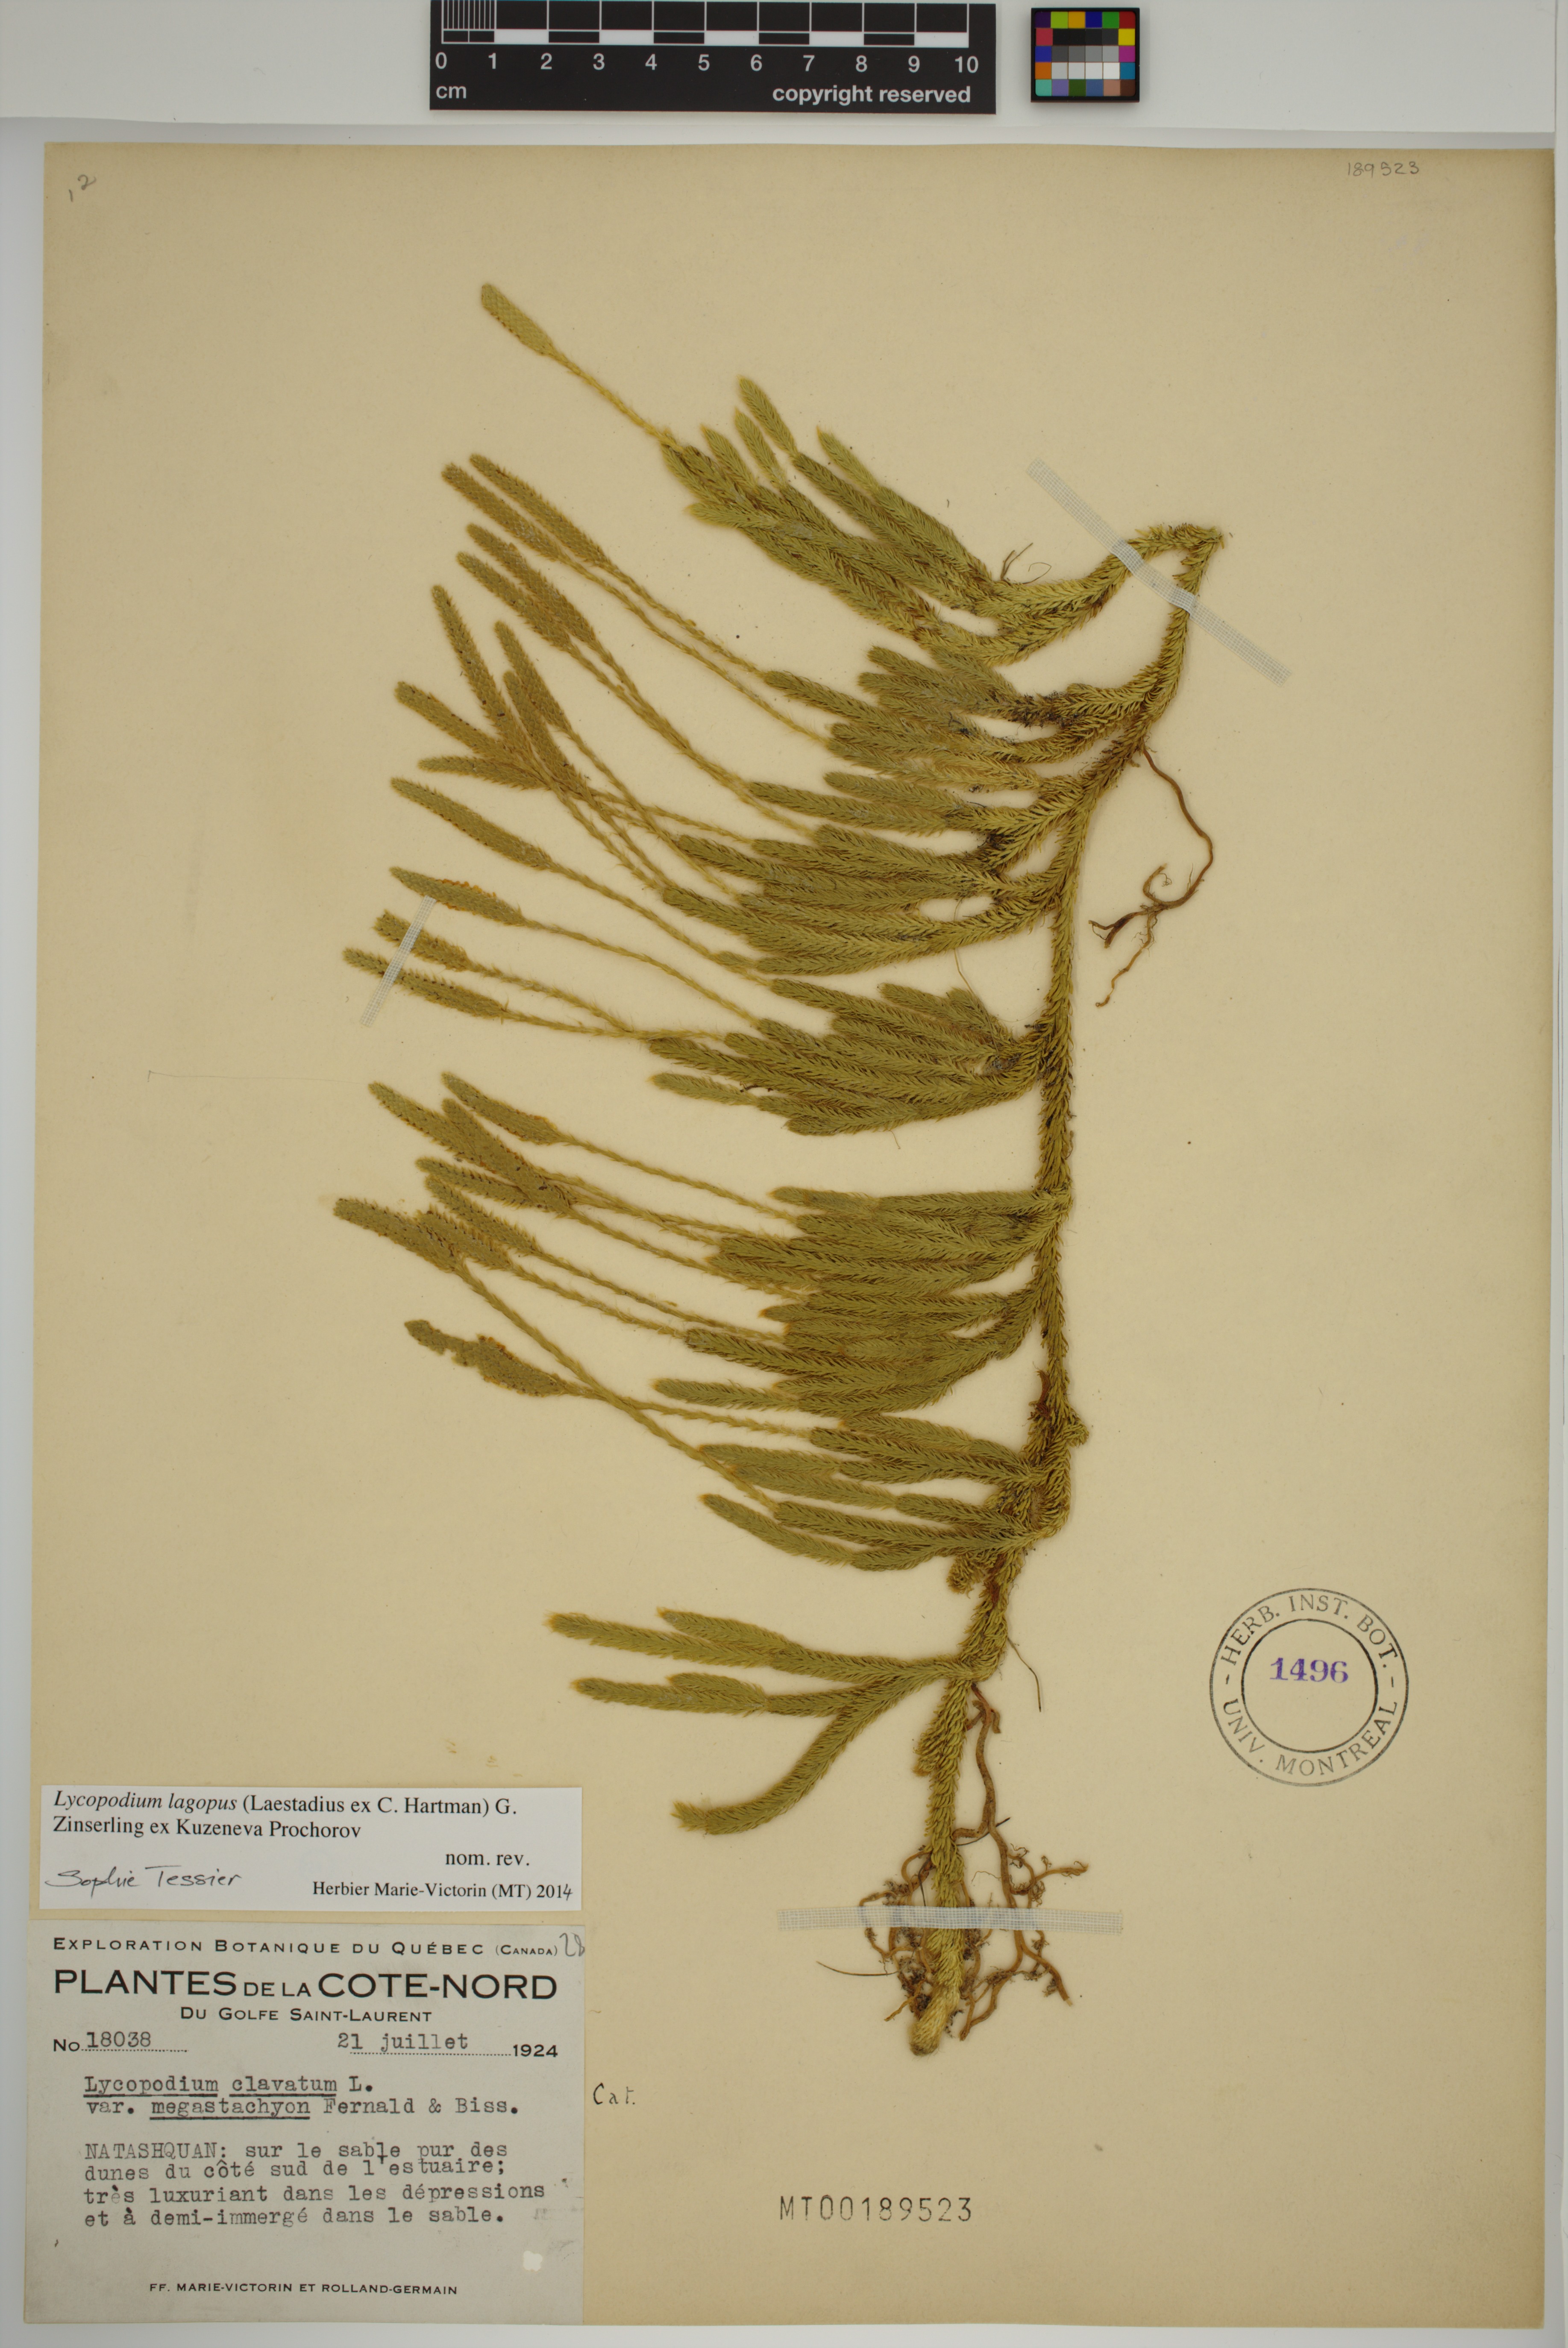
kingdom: Plantae
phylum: Tracheophyta
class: Lycopodiopsida
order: Lycopodiales
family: Lycopodiaceae
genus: Lycopodium
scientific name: Lycopodium lagopus
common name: One-cone clubmoss
